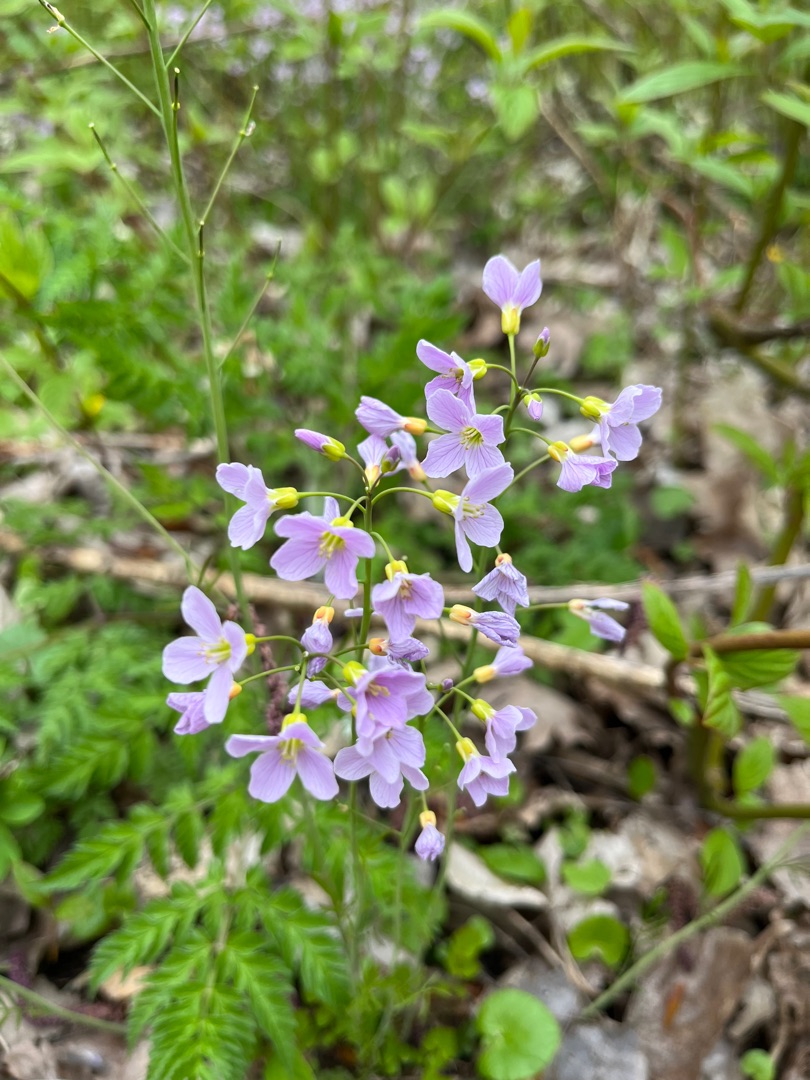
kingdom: Plantae
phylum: Tracheophyta
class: Magnoliopsida
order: Brassicales
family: Brassicaceae
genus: Cardamine
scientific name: Cardamine pratensis
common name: Engkarse
